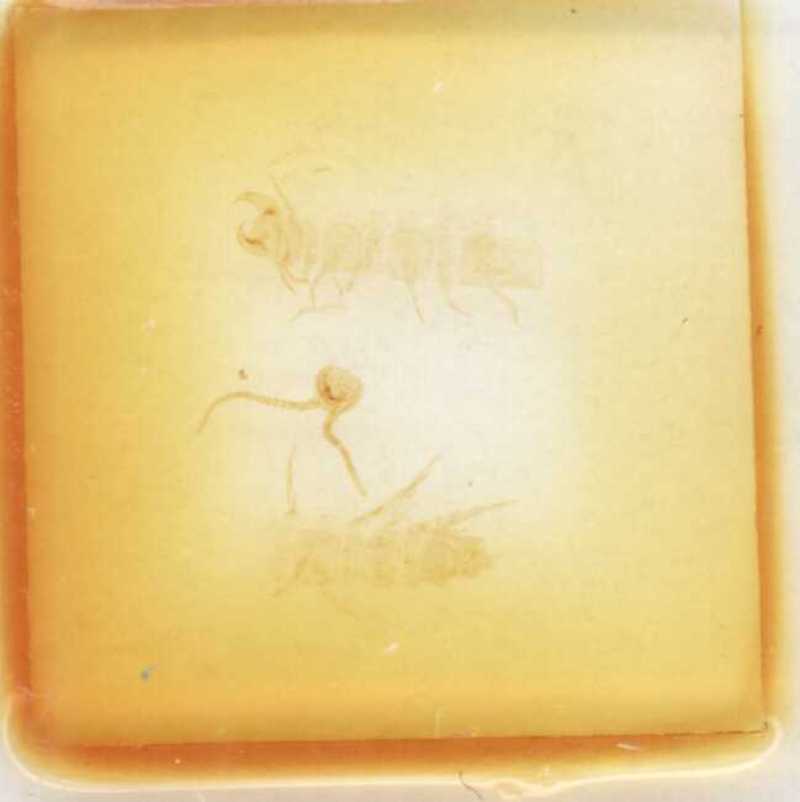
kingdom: Animalia
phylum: Arthropoda
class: Chilopoda
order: Lithobiomorpha
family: Lithobiidae
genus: Monotarsobius
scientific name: Monotarsobius microps
